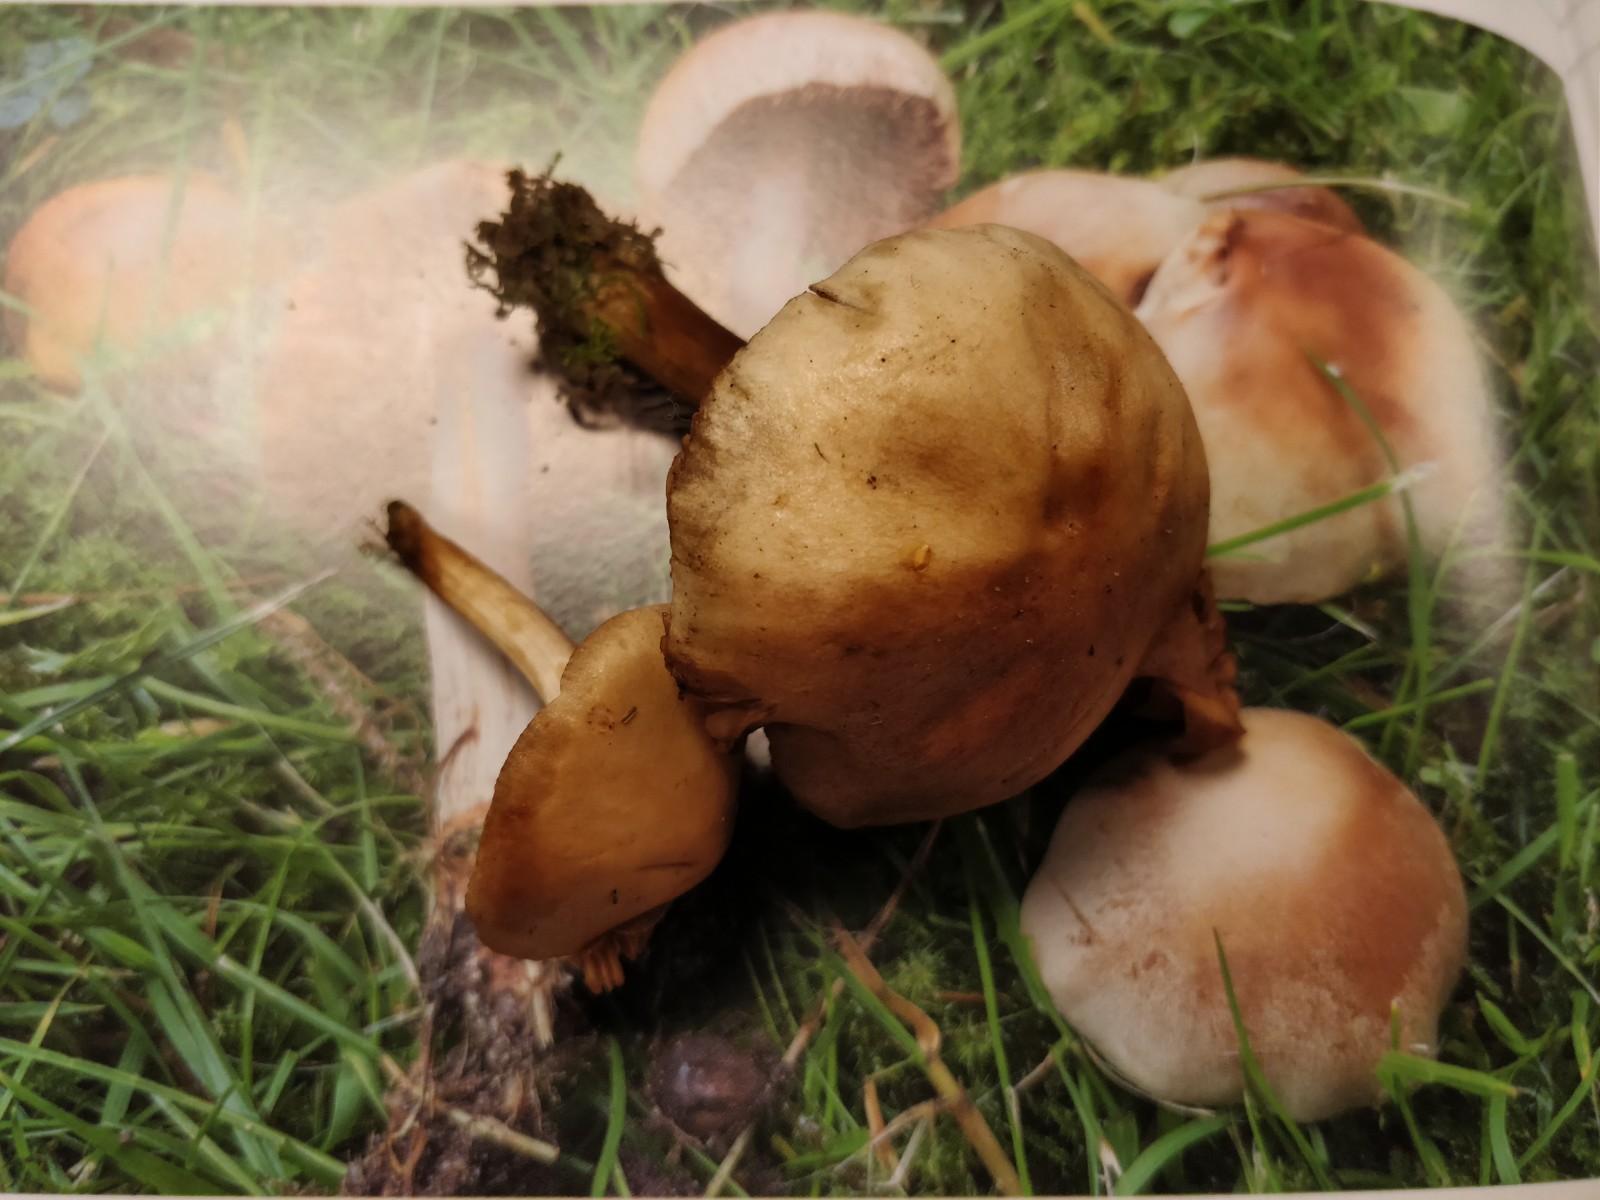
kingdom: Fungi
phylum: Basidiomycota
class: Agaricomycetes
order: Agaricales
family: Hymenogastraceae
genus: Hebeloma
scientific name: Hebeloma
